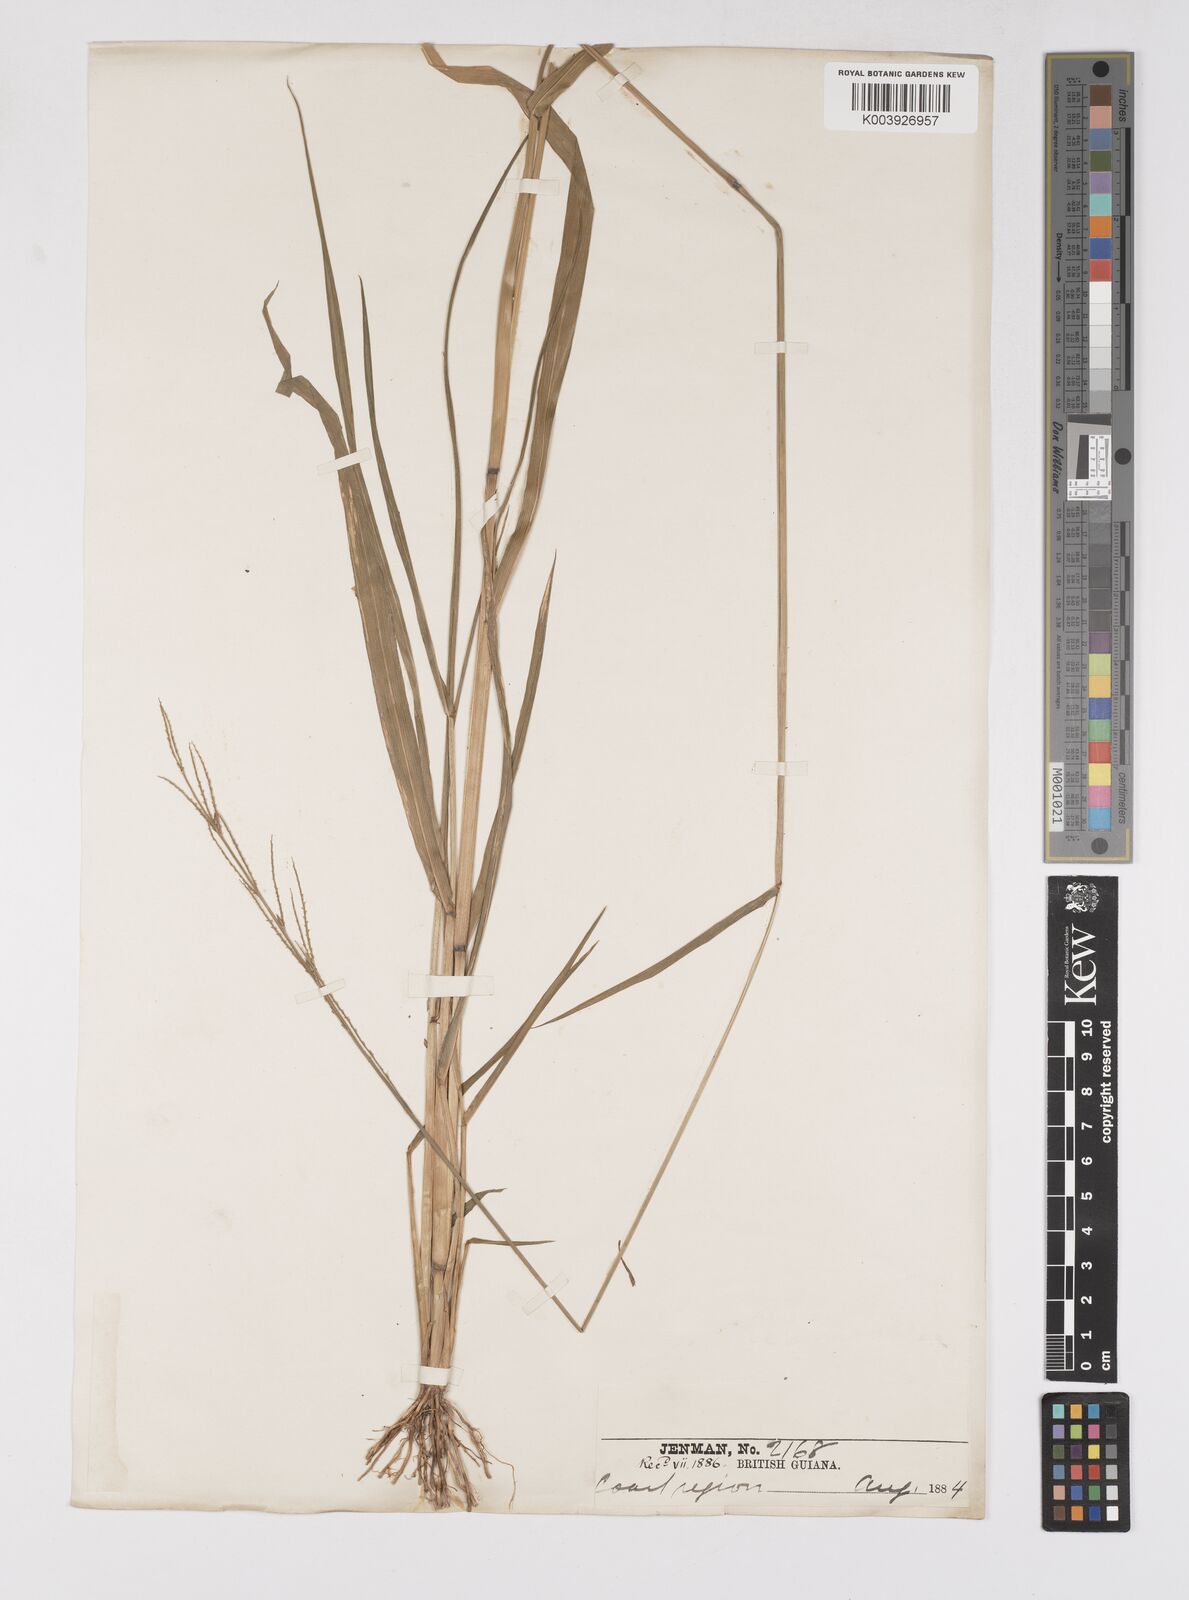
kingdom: Plantae
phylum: Tracheophyta
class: Liliopsida
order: Poales
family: Poaceae
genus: Eriochloa
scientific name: Eriochloa punctata
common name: Louisiana cupgrass
